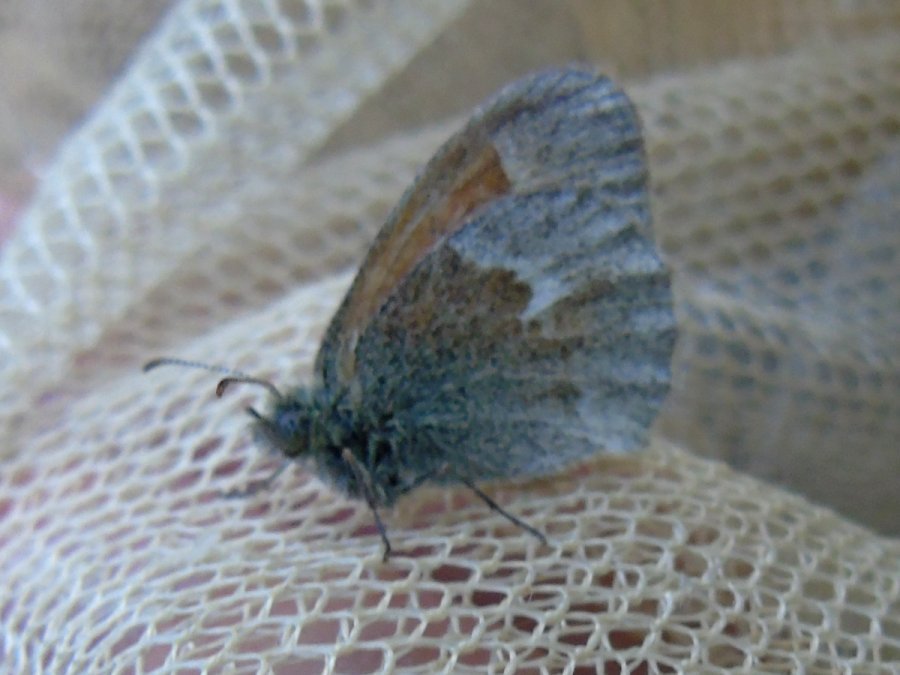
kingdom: Animalia
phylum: Arthropoda
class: Insecta
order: Lepidoptera
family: Nymphalidae
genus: Coenonympha
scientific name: Coenonympha tullia
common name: Large Heath
